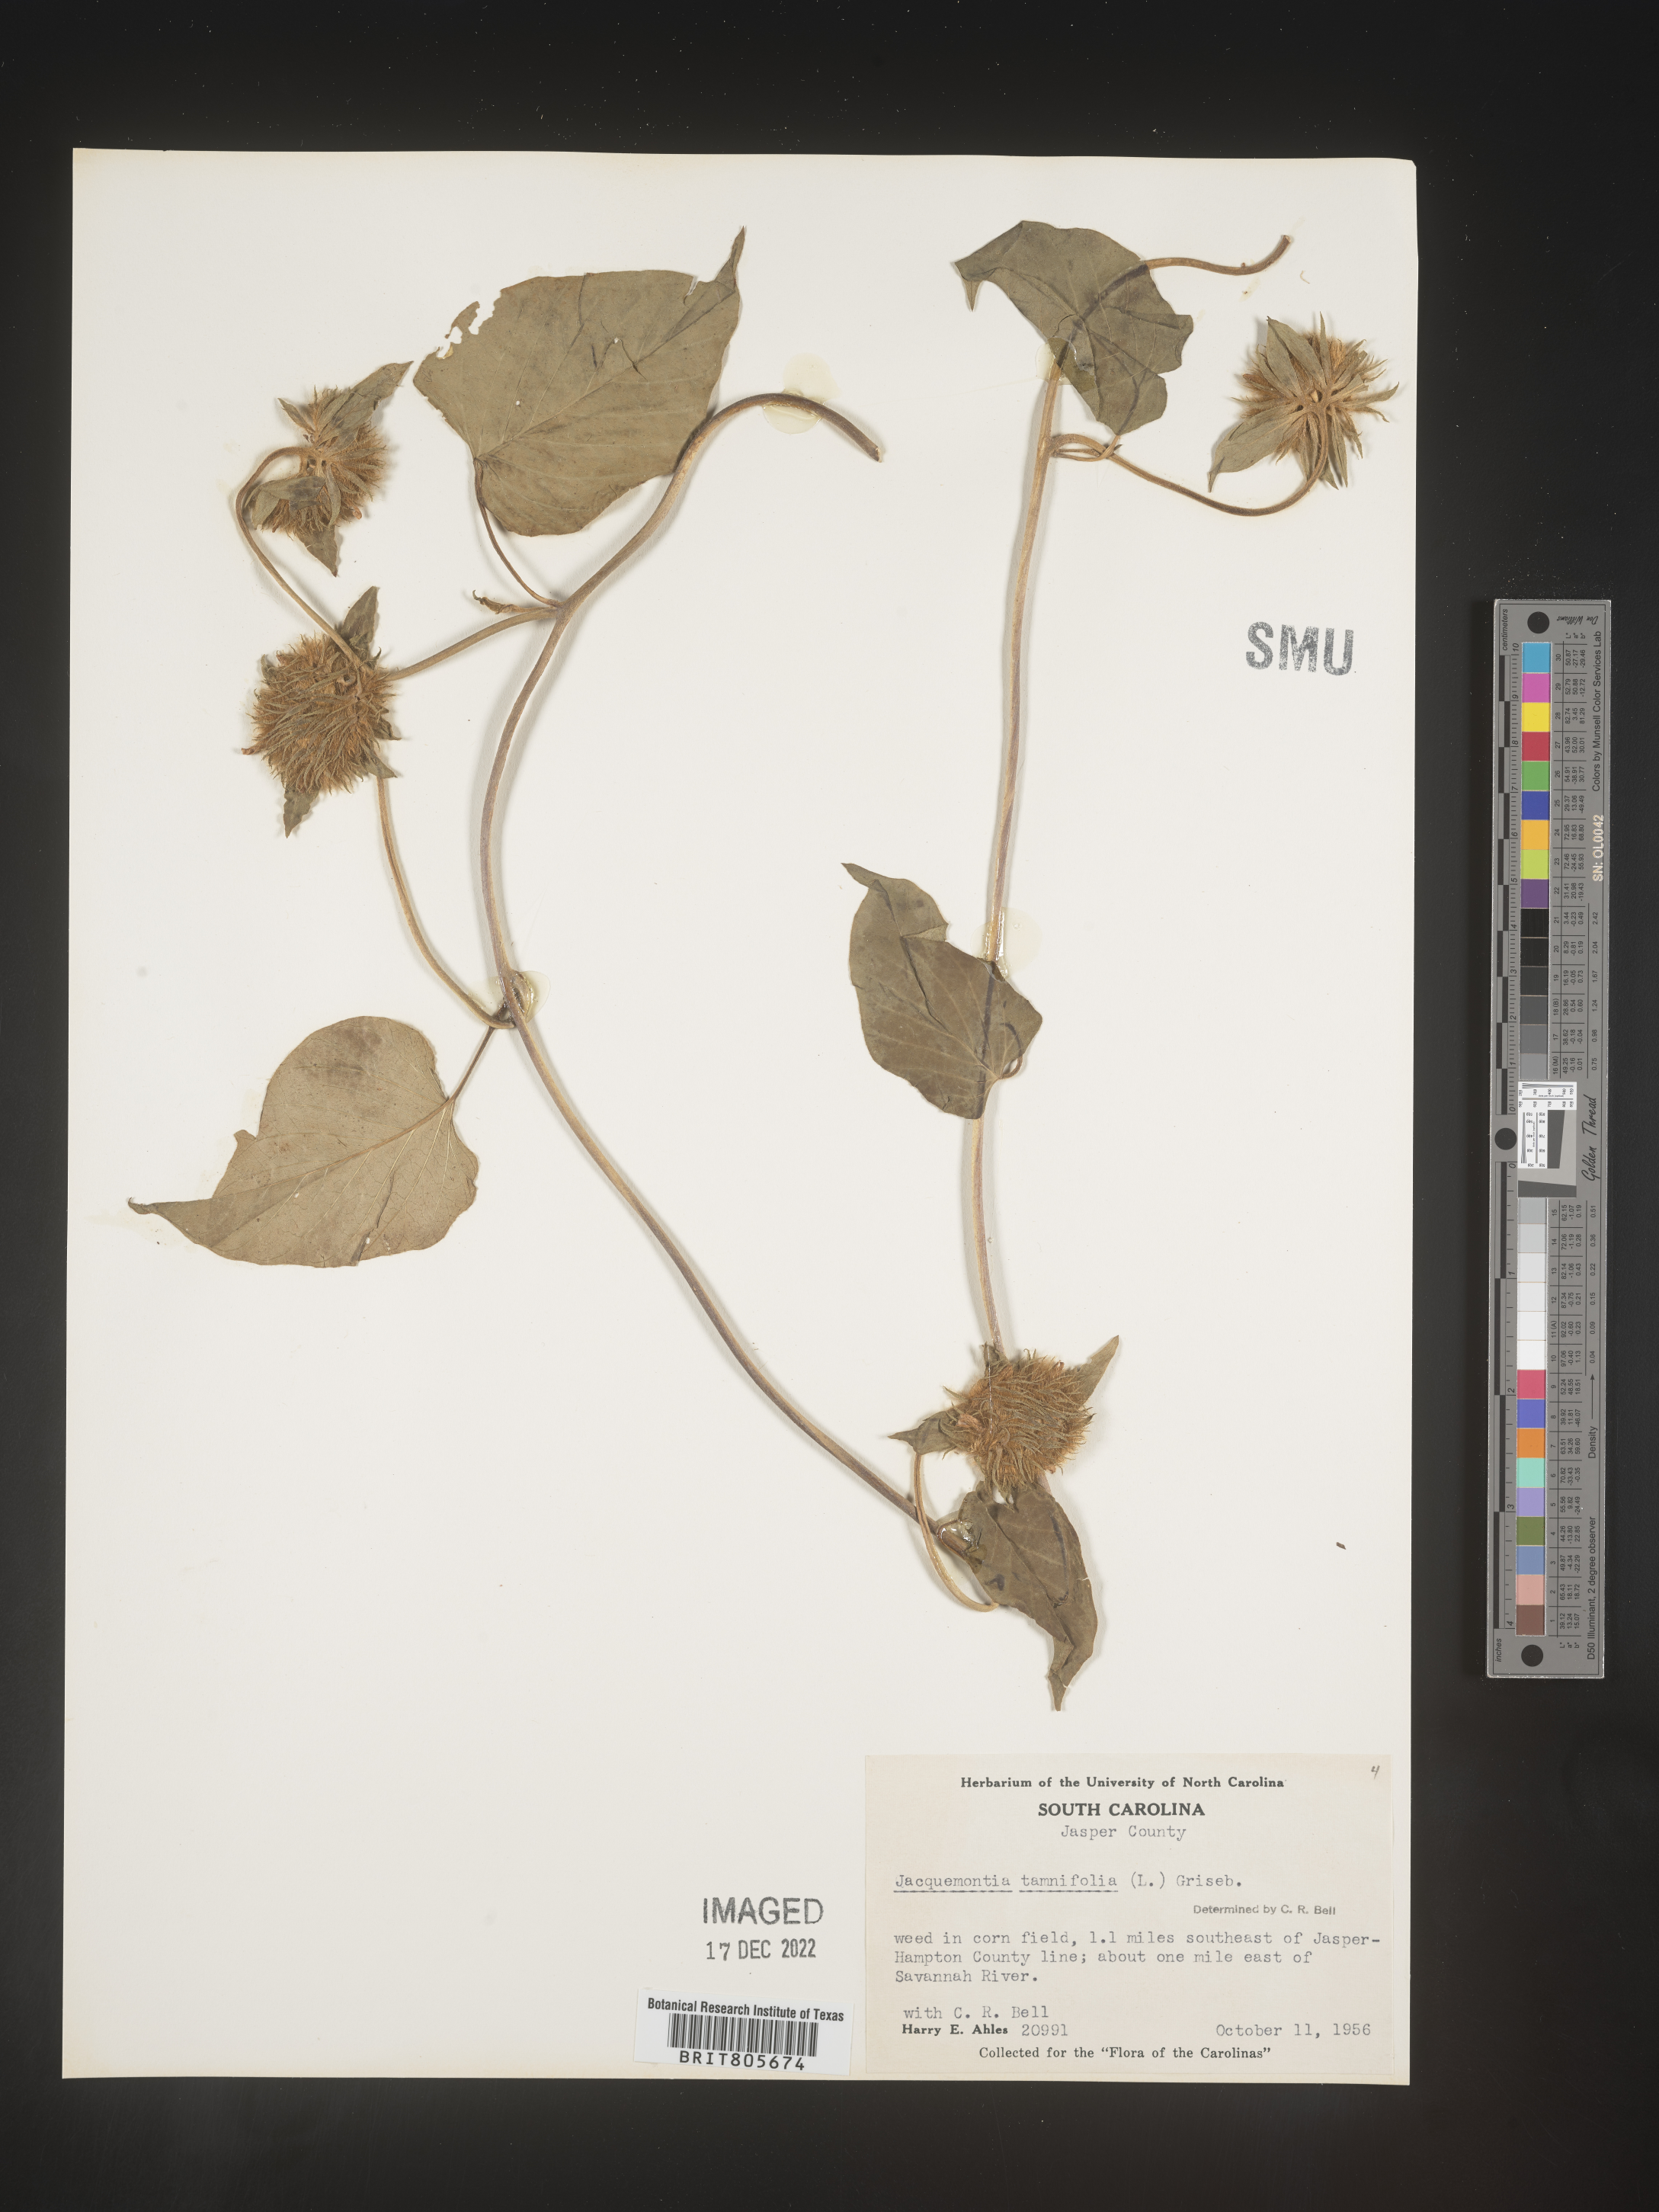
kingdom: Plantae
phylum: Tracheophyta
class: Magnoliopsida
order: Solanales
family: Convolvulaceae
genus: Jacquemontia
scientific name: Jacquemontia tamnifolia
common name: Hairy clustervine
